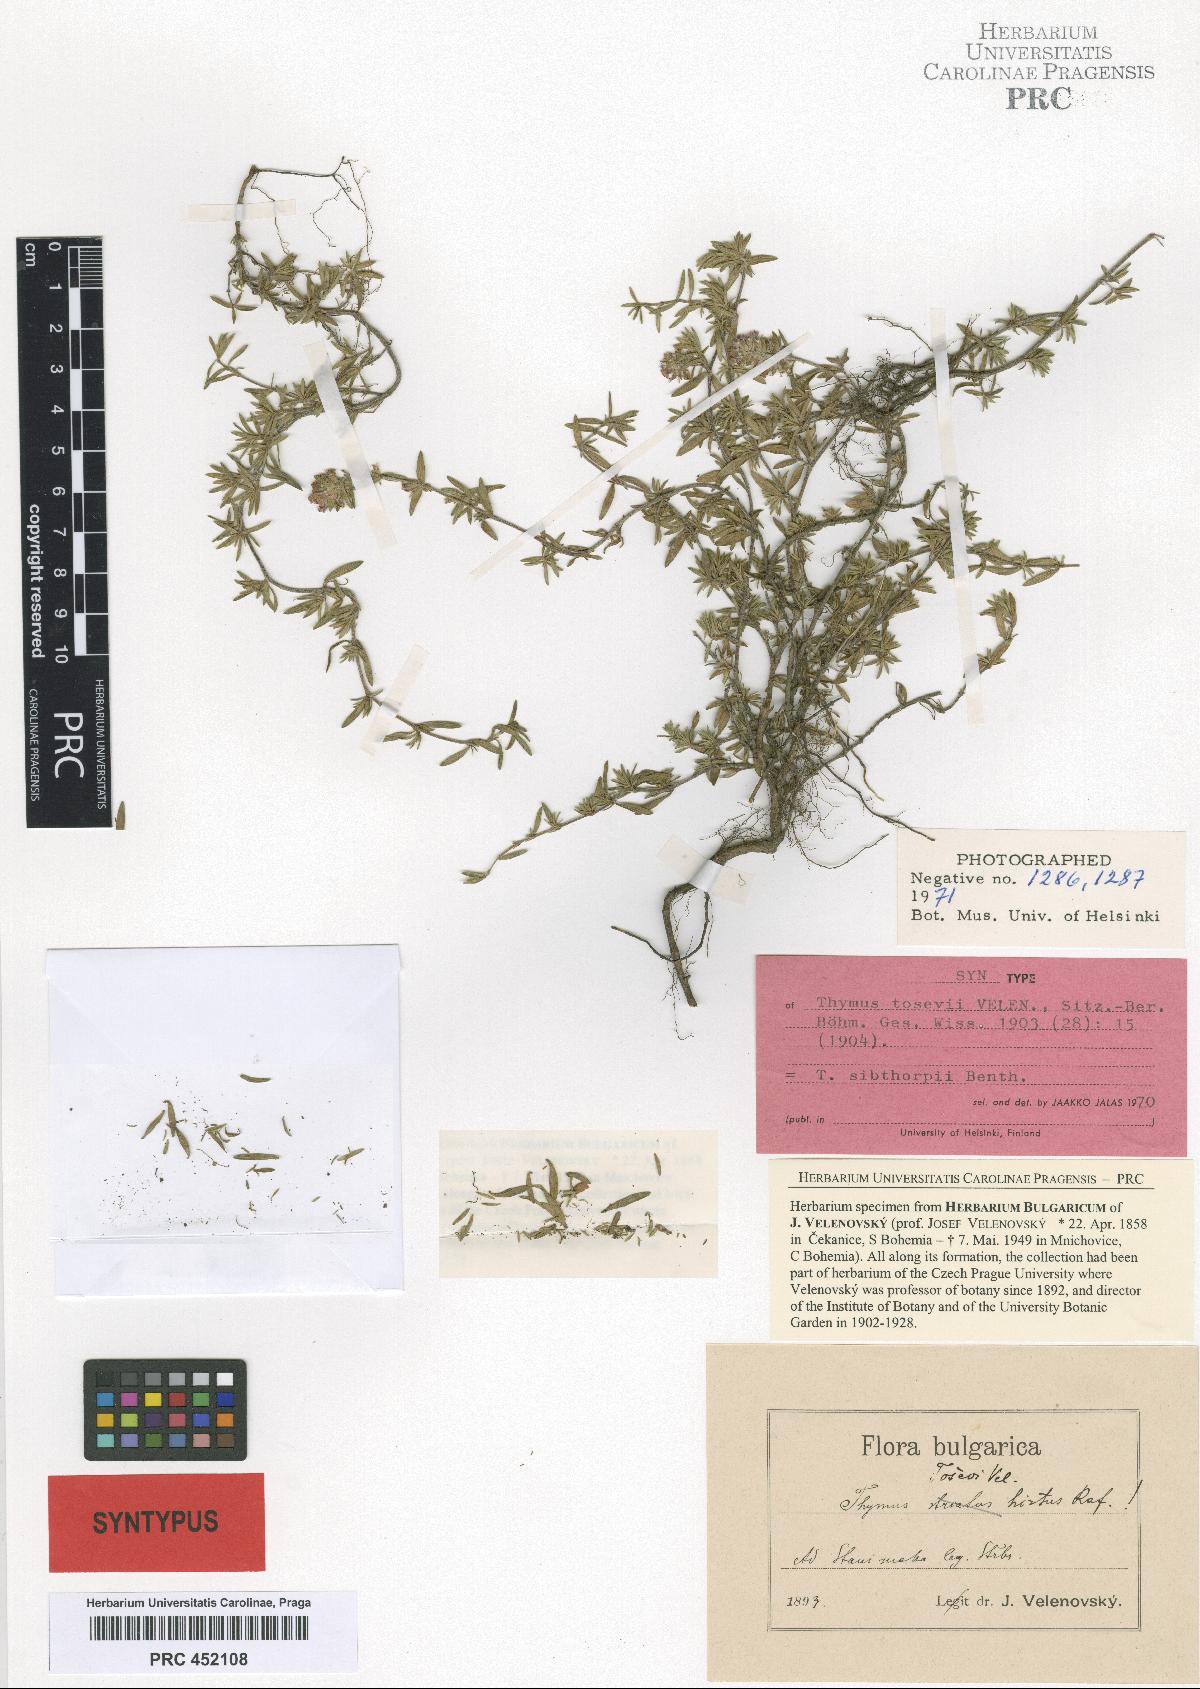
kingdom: Plantae
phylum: Tracheophyta
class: Magnoliopsida
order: Lamiales
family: Lamiaceae
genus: Thymus
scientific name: Thymus sibthorpii
